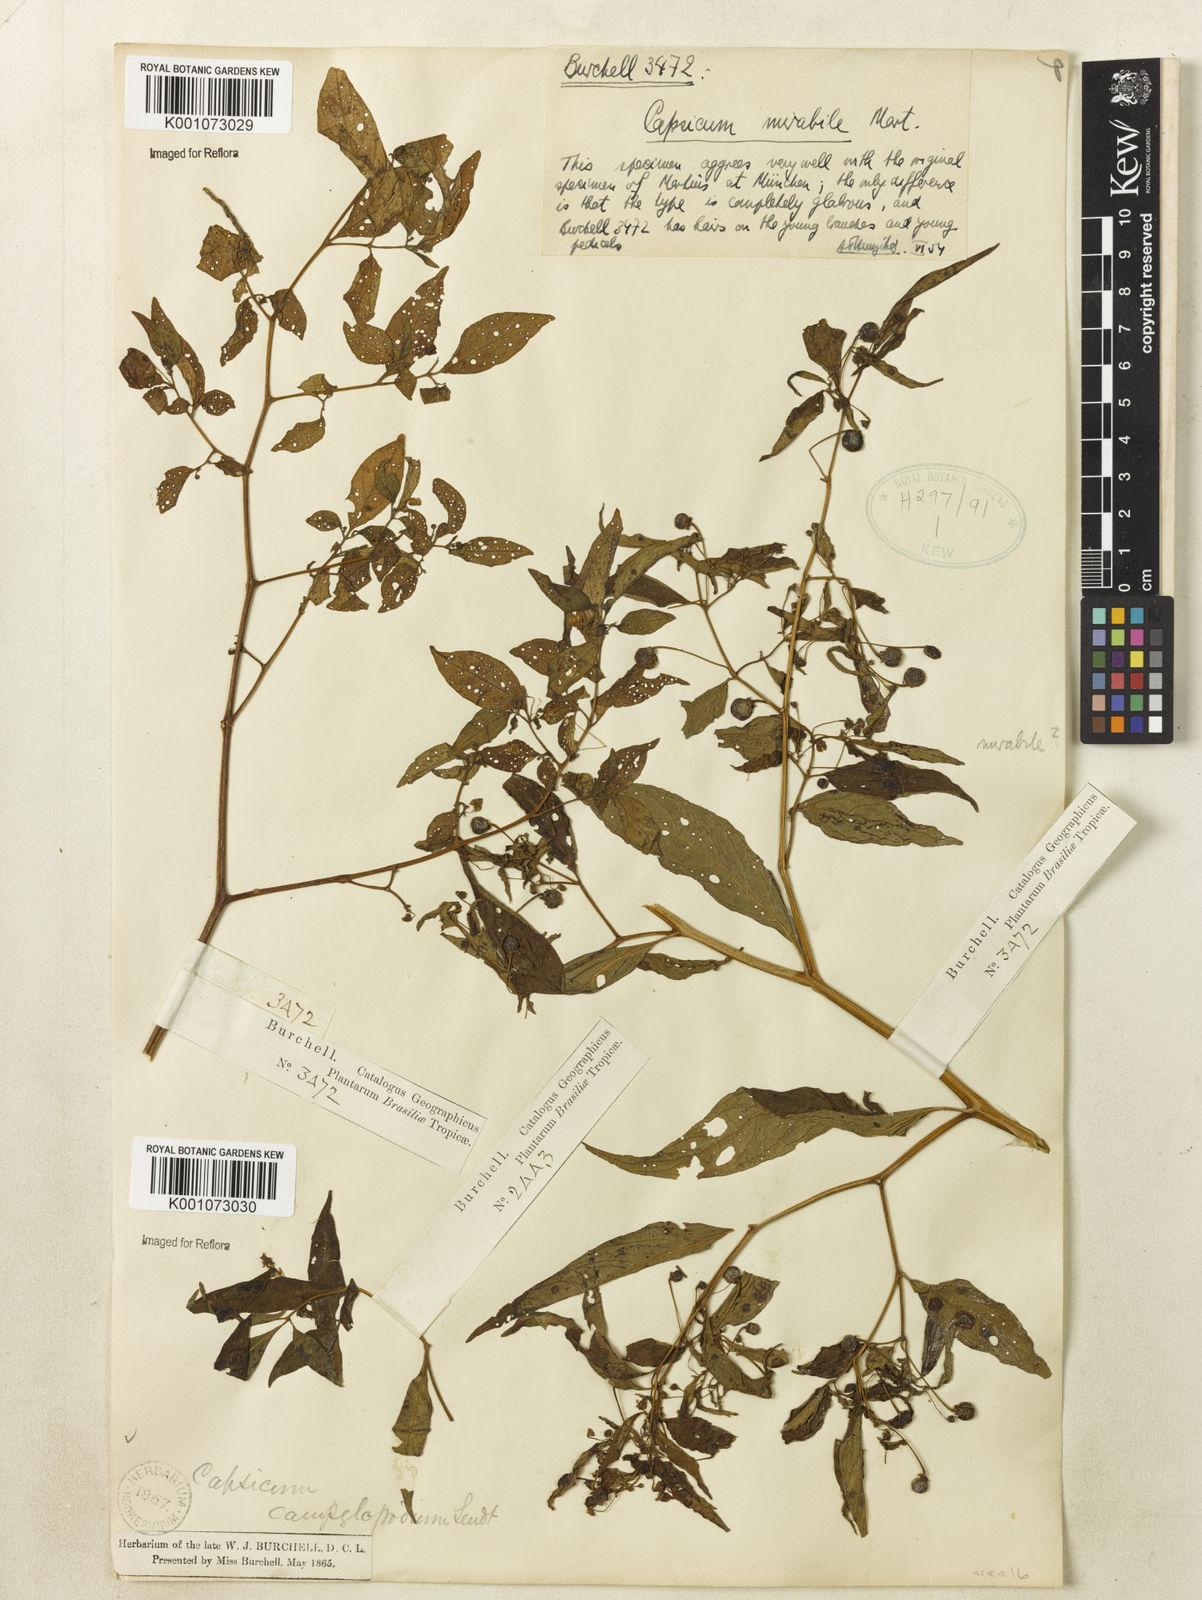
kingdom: Plantae
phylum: Tracheophyta
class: Magnoliopsida
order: Solanales
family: Solanaceae
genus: Capsicum
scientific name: Capsicum
